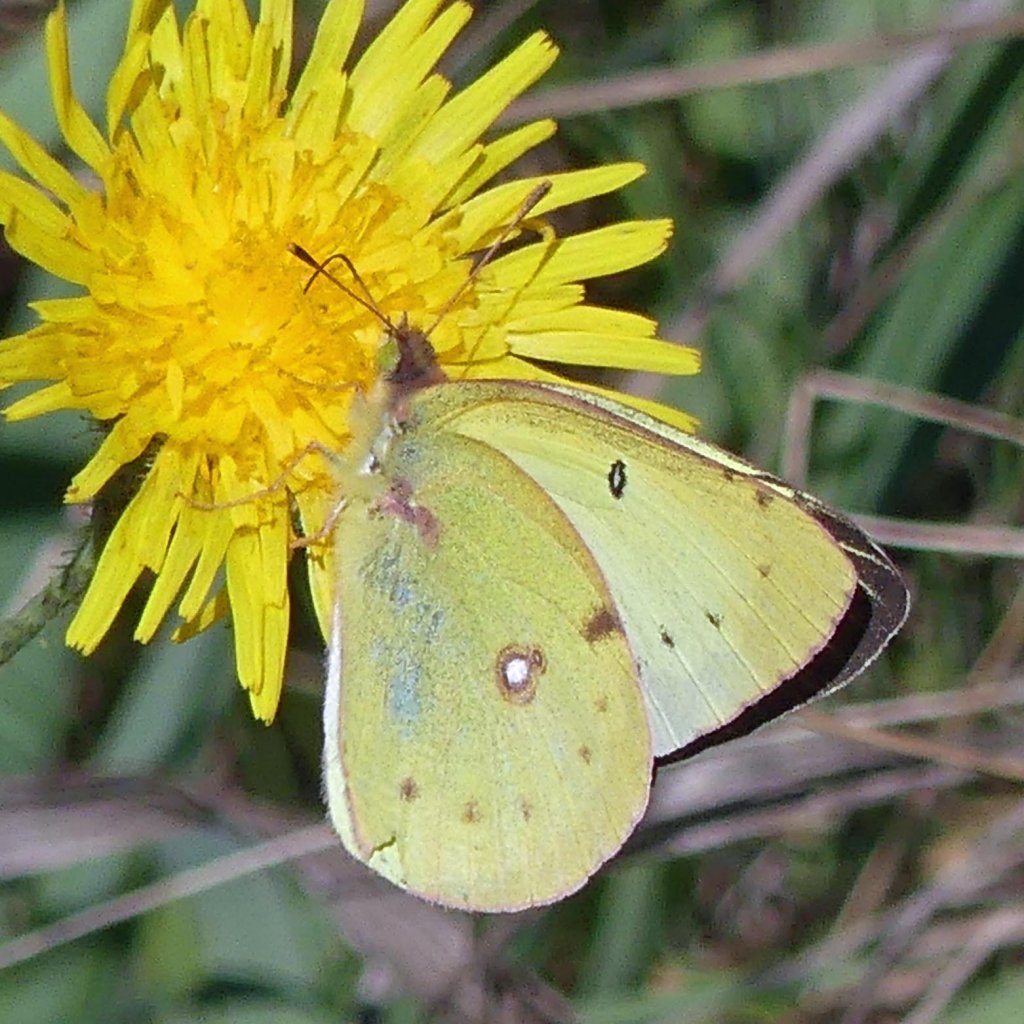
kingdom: Animalia
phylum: Arthropoda
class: Insecta
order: Lepidoptera
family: Pieridae
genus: Colias
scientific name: Colias philodice
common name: Clouded Sulphur
